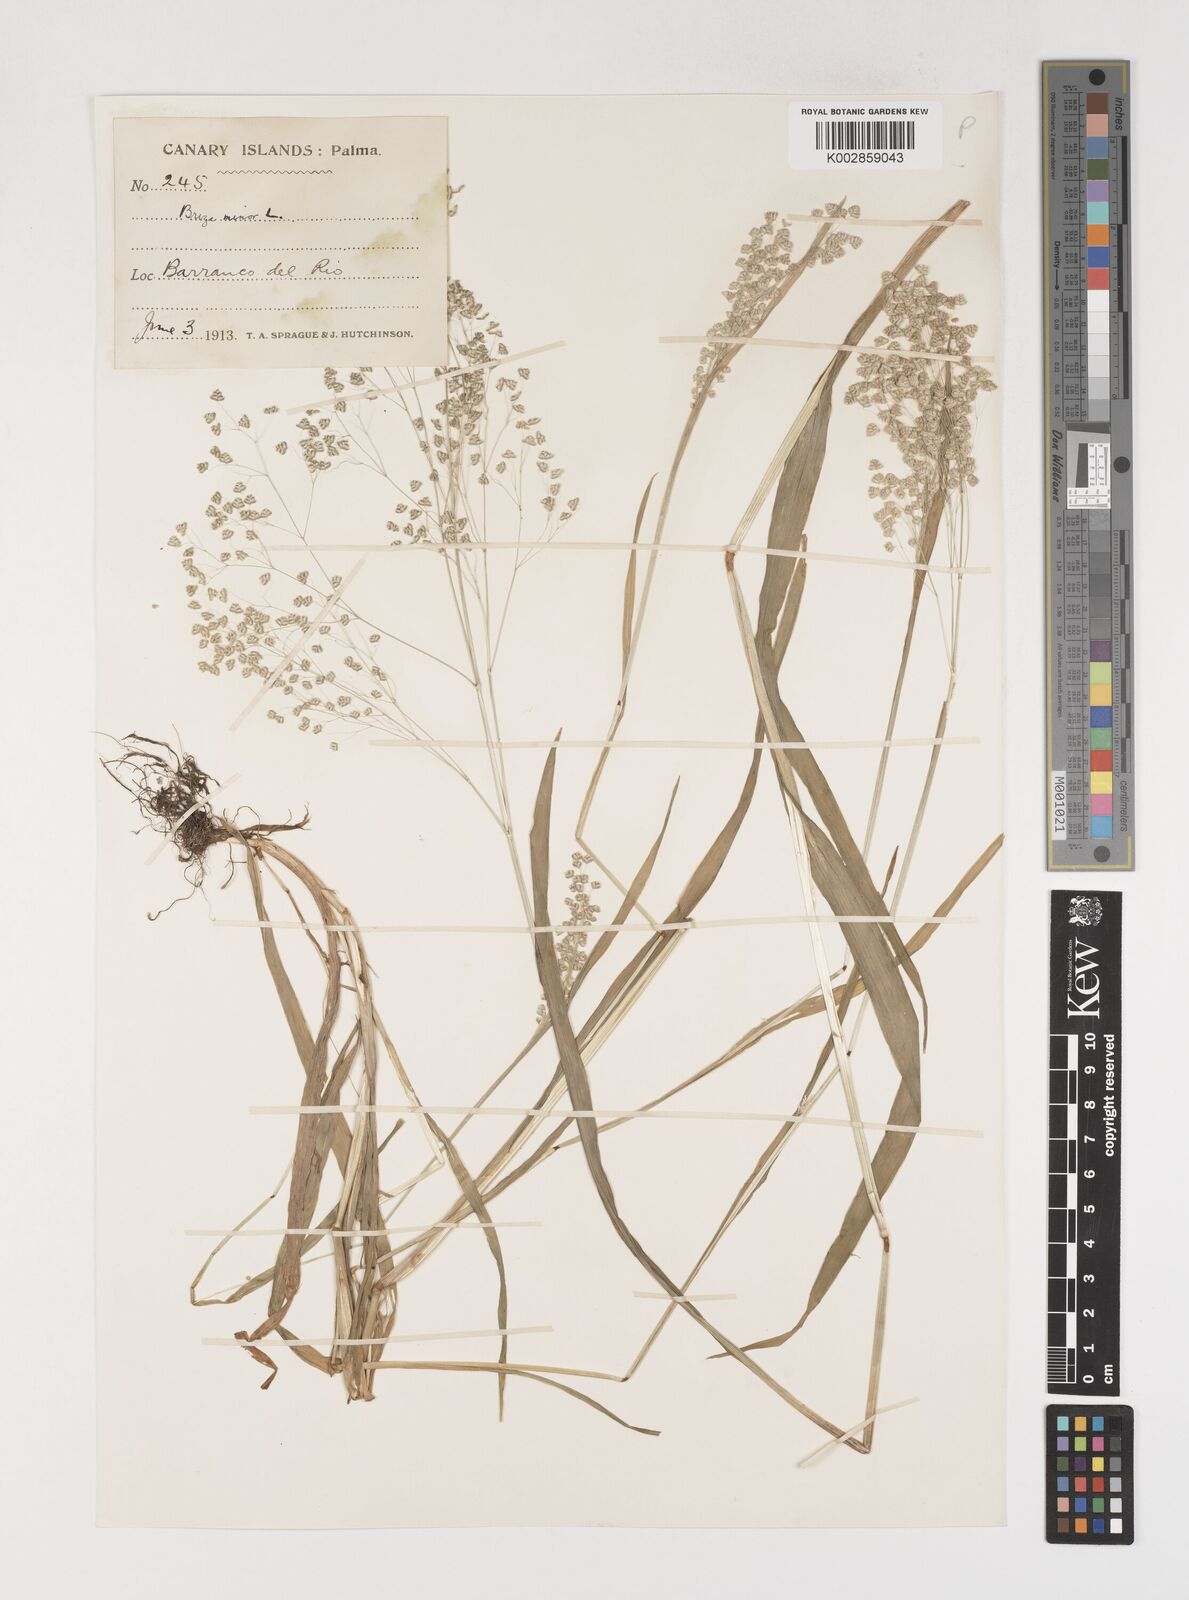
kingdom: Plantae
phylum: Tracheophyta
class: Liliopsida
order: Poales
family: Poaceae
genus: Briza
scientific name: Briza minor
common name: Lesser quaking-grass
